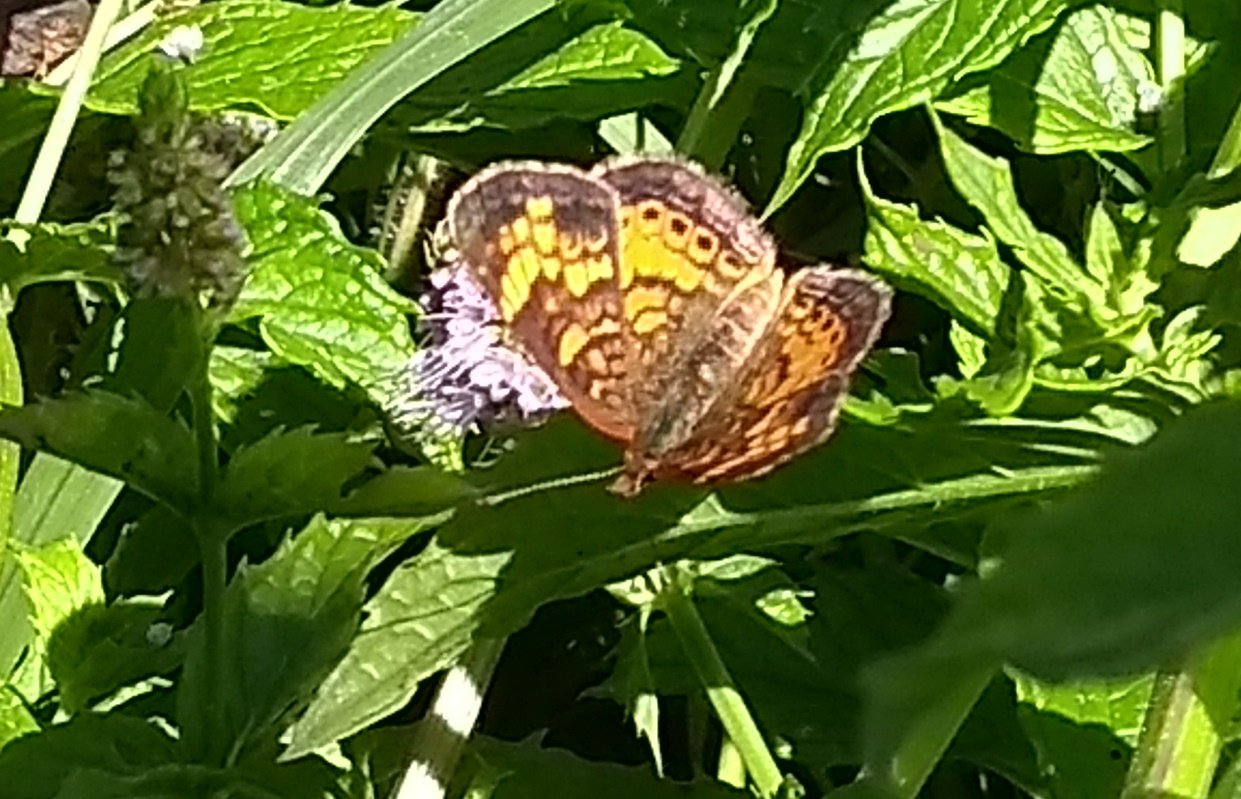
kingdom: Animalia
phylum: Arthropoda
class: Insecta
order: Lepidoptera
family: Nymphalidae
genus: Phyciodes
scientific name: Phyciodes tharos
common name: Northern Crescent
